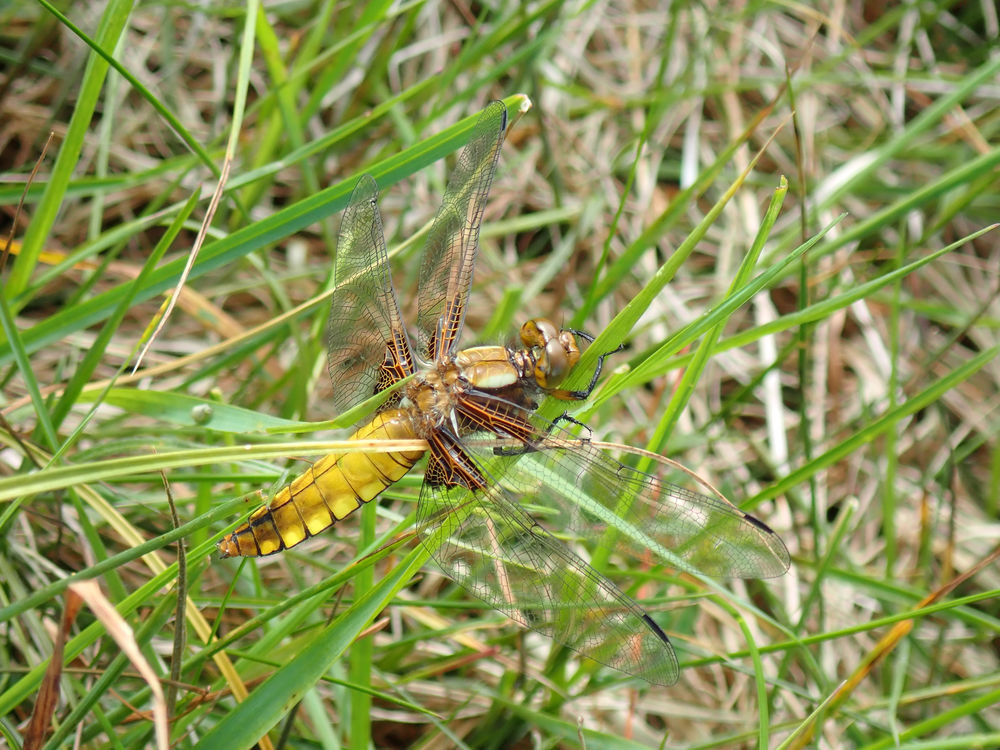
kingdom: Animalia
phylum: Arthropoda
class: Insecta
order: Odonata
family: Libellulidae
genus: Libellula
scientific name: Libellula depressa
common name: Blå libel
